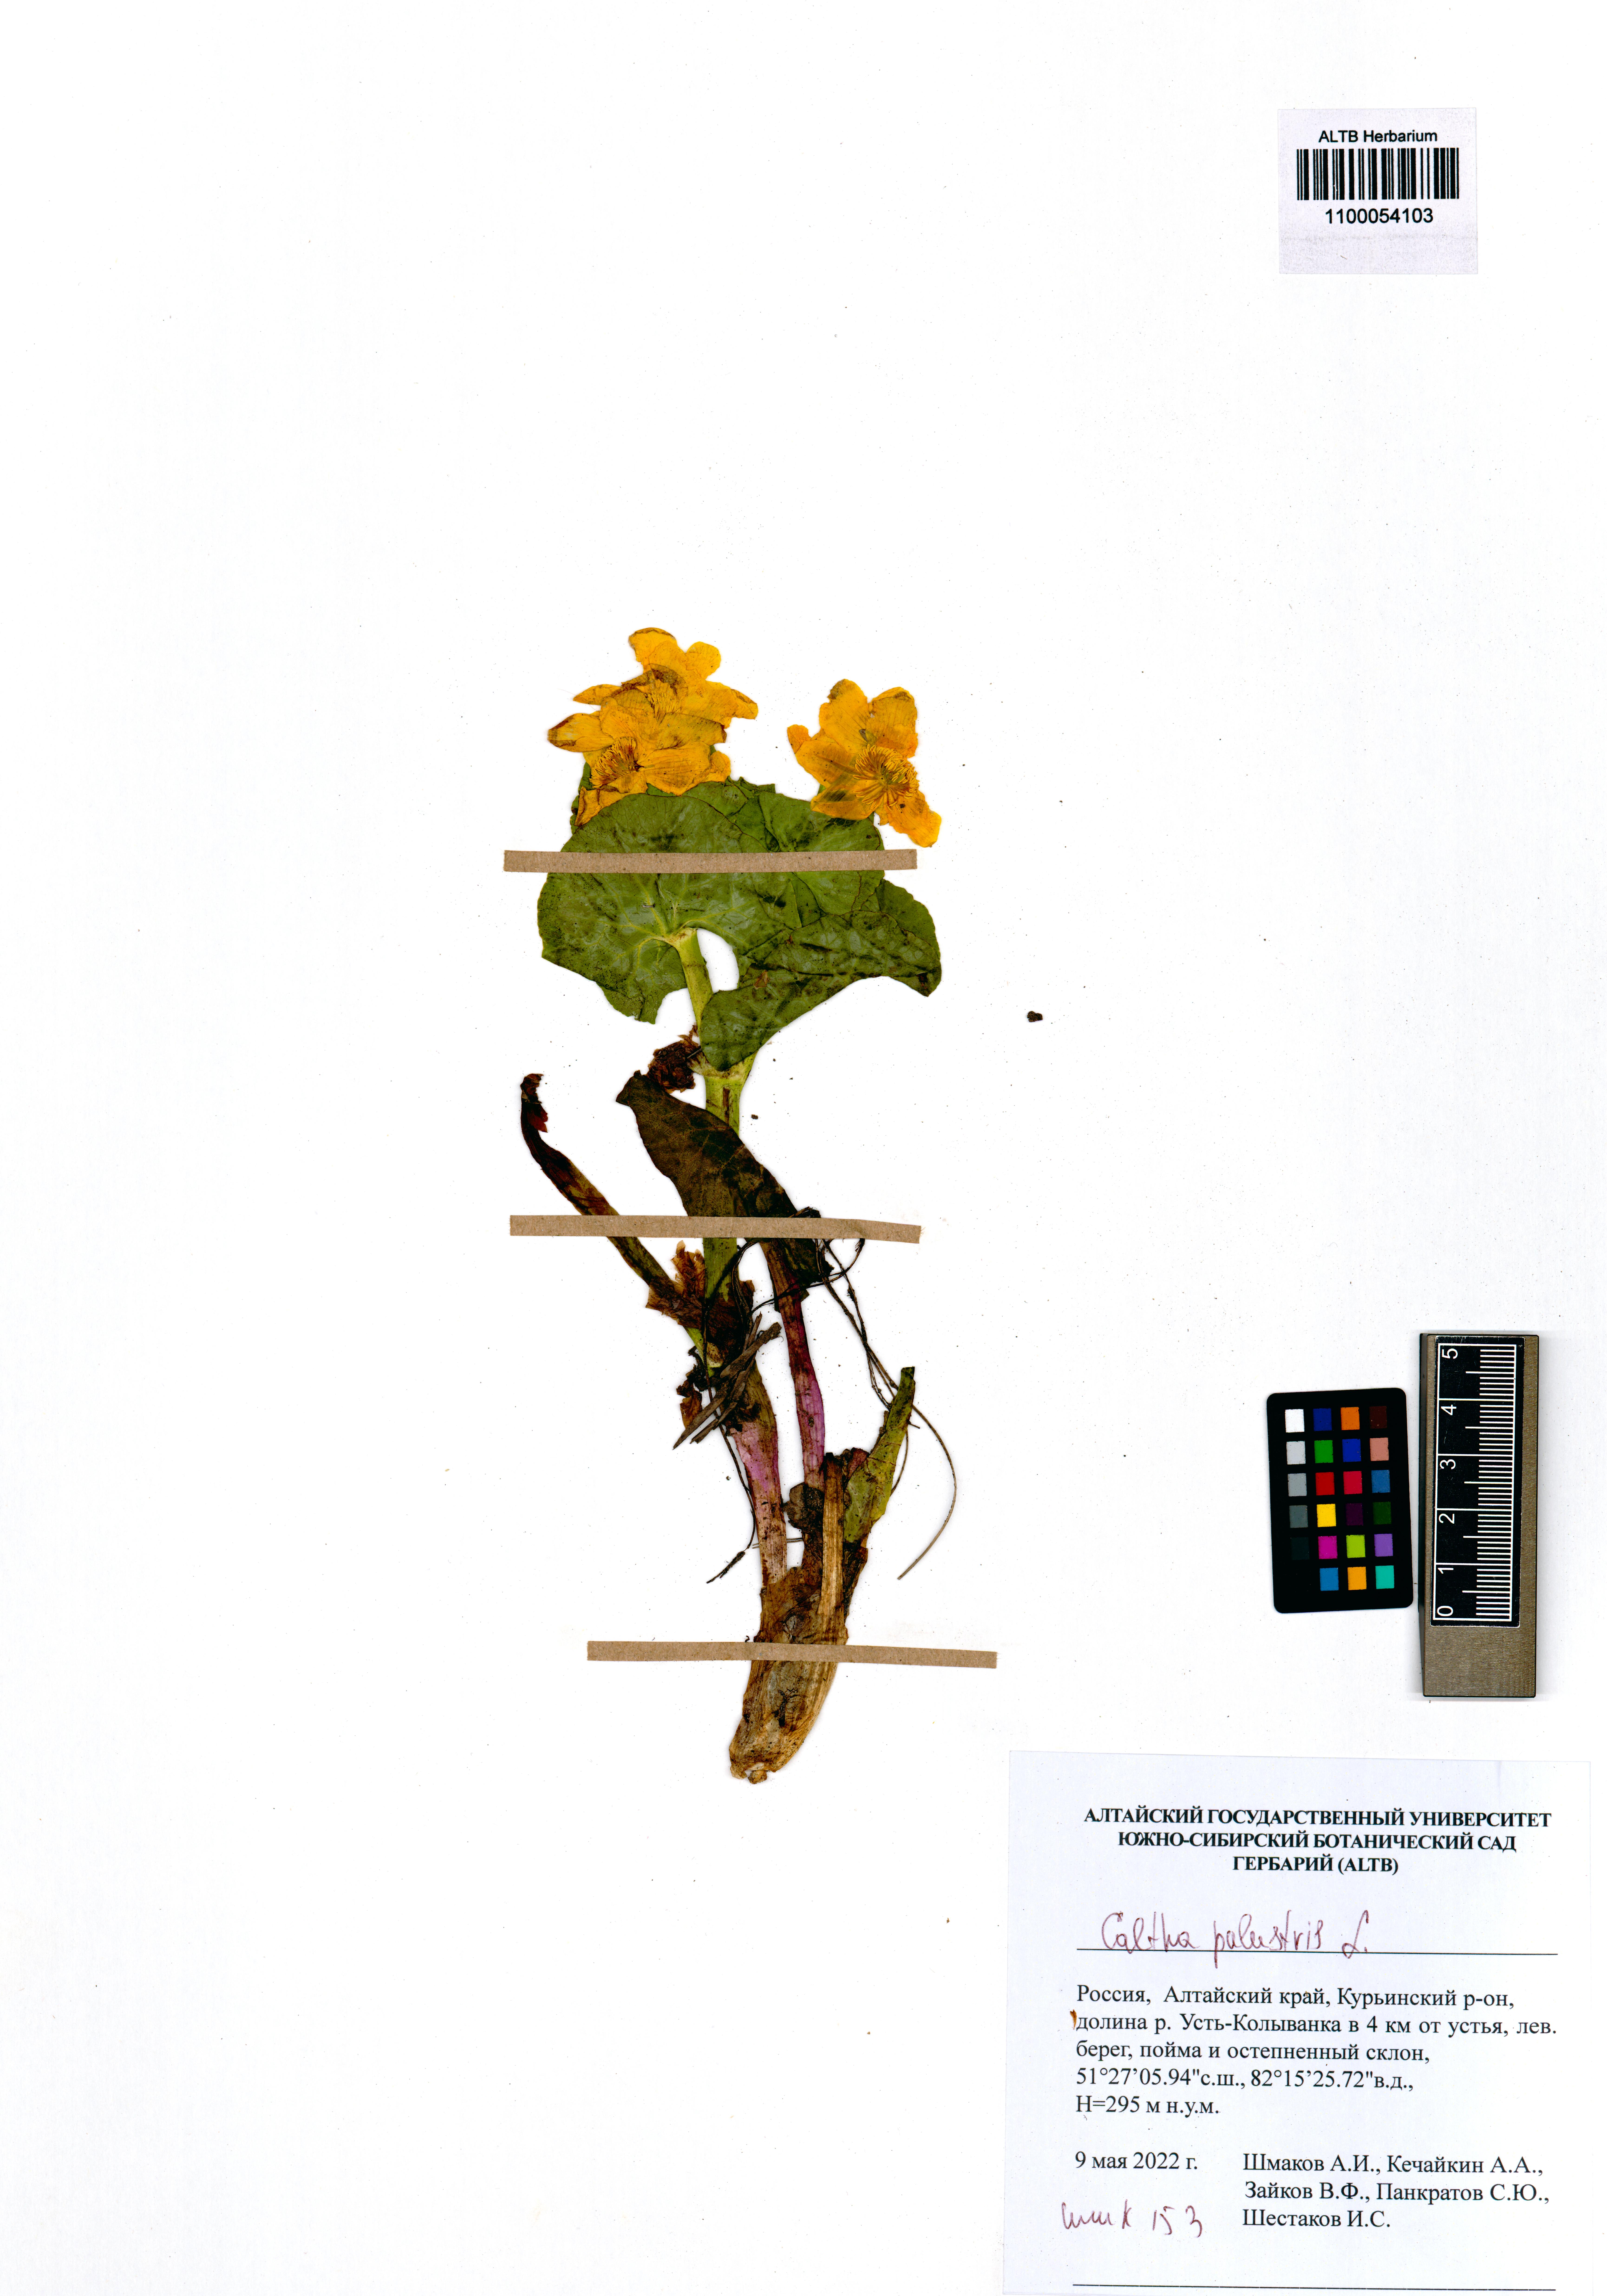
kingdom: Plantae
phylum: Tracheophyta
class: Magnoliopsida
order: Ranunculales
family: Ranunculaceae
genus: Caltha
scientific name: Caltha palustris
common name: Marsh marigold
